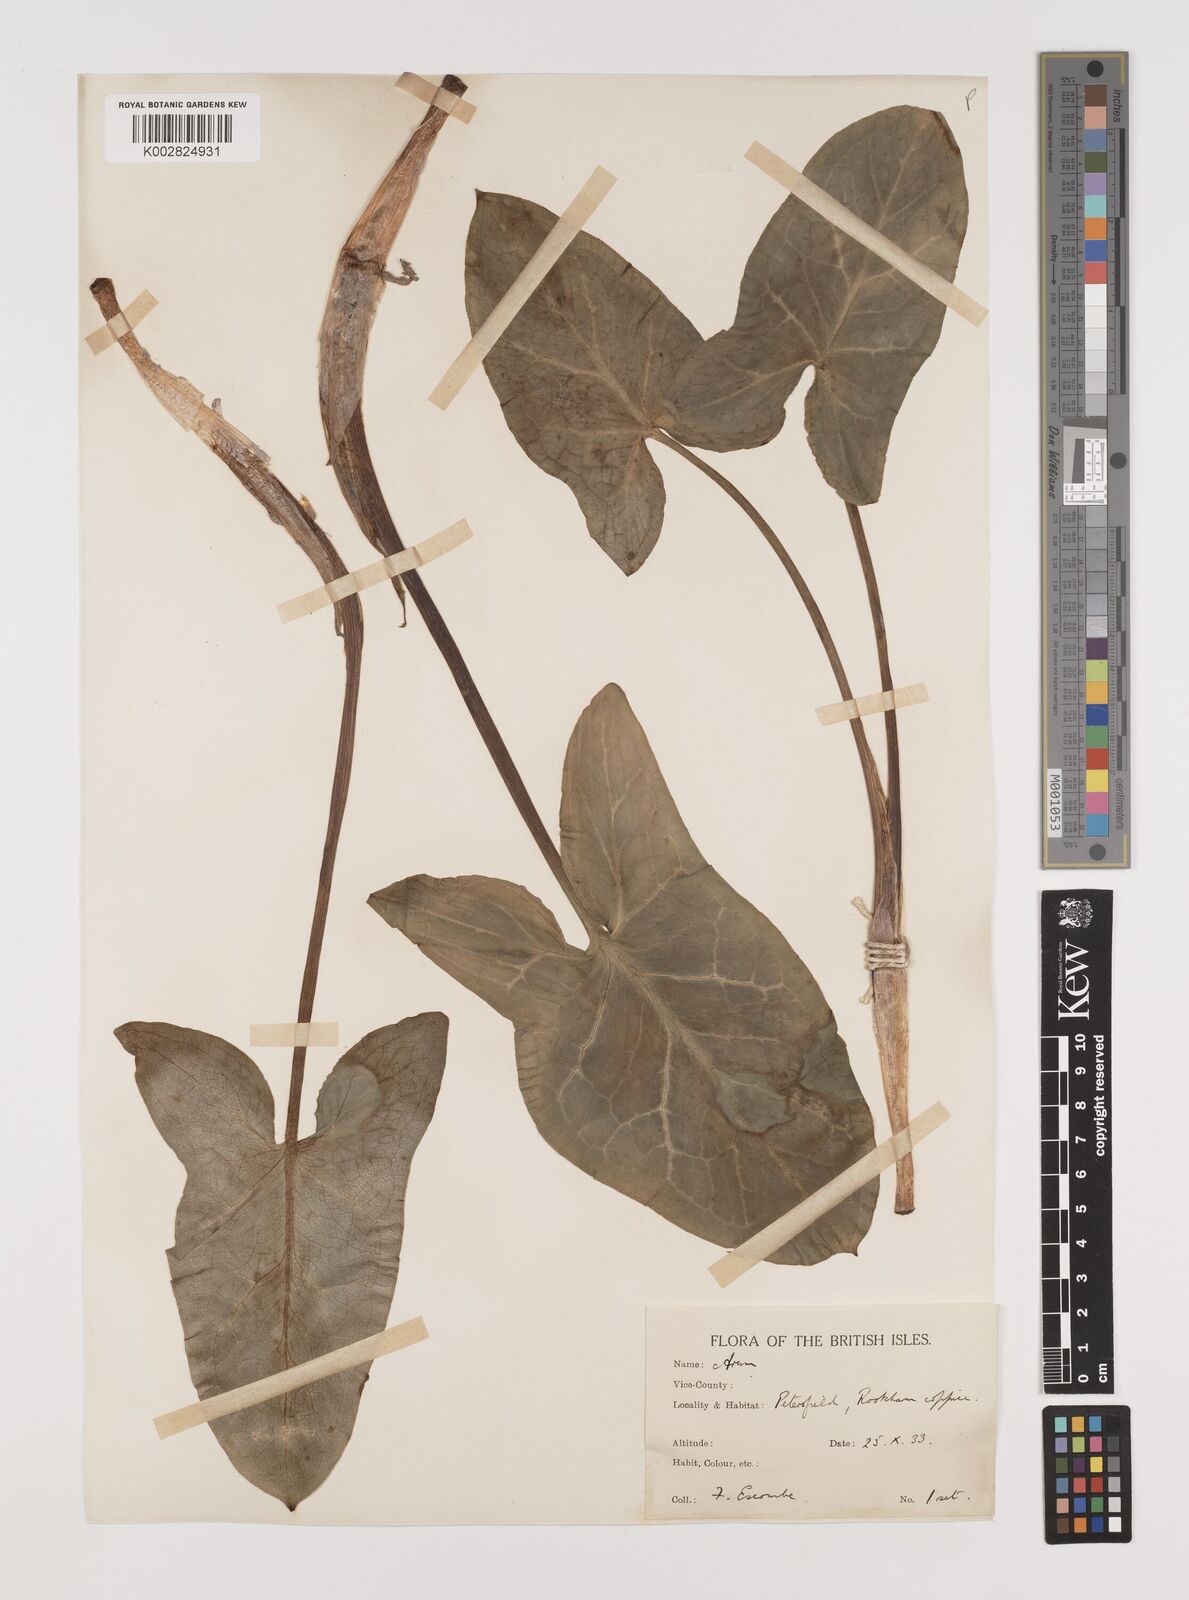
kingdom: Plantae
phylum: Tracheophyta
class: Liliopsida
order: Alismatales
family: Araceae
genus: Arum
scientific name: Arum italicum
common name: Italian lords-and-ladies
